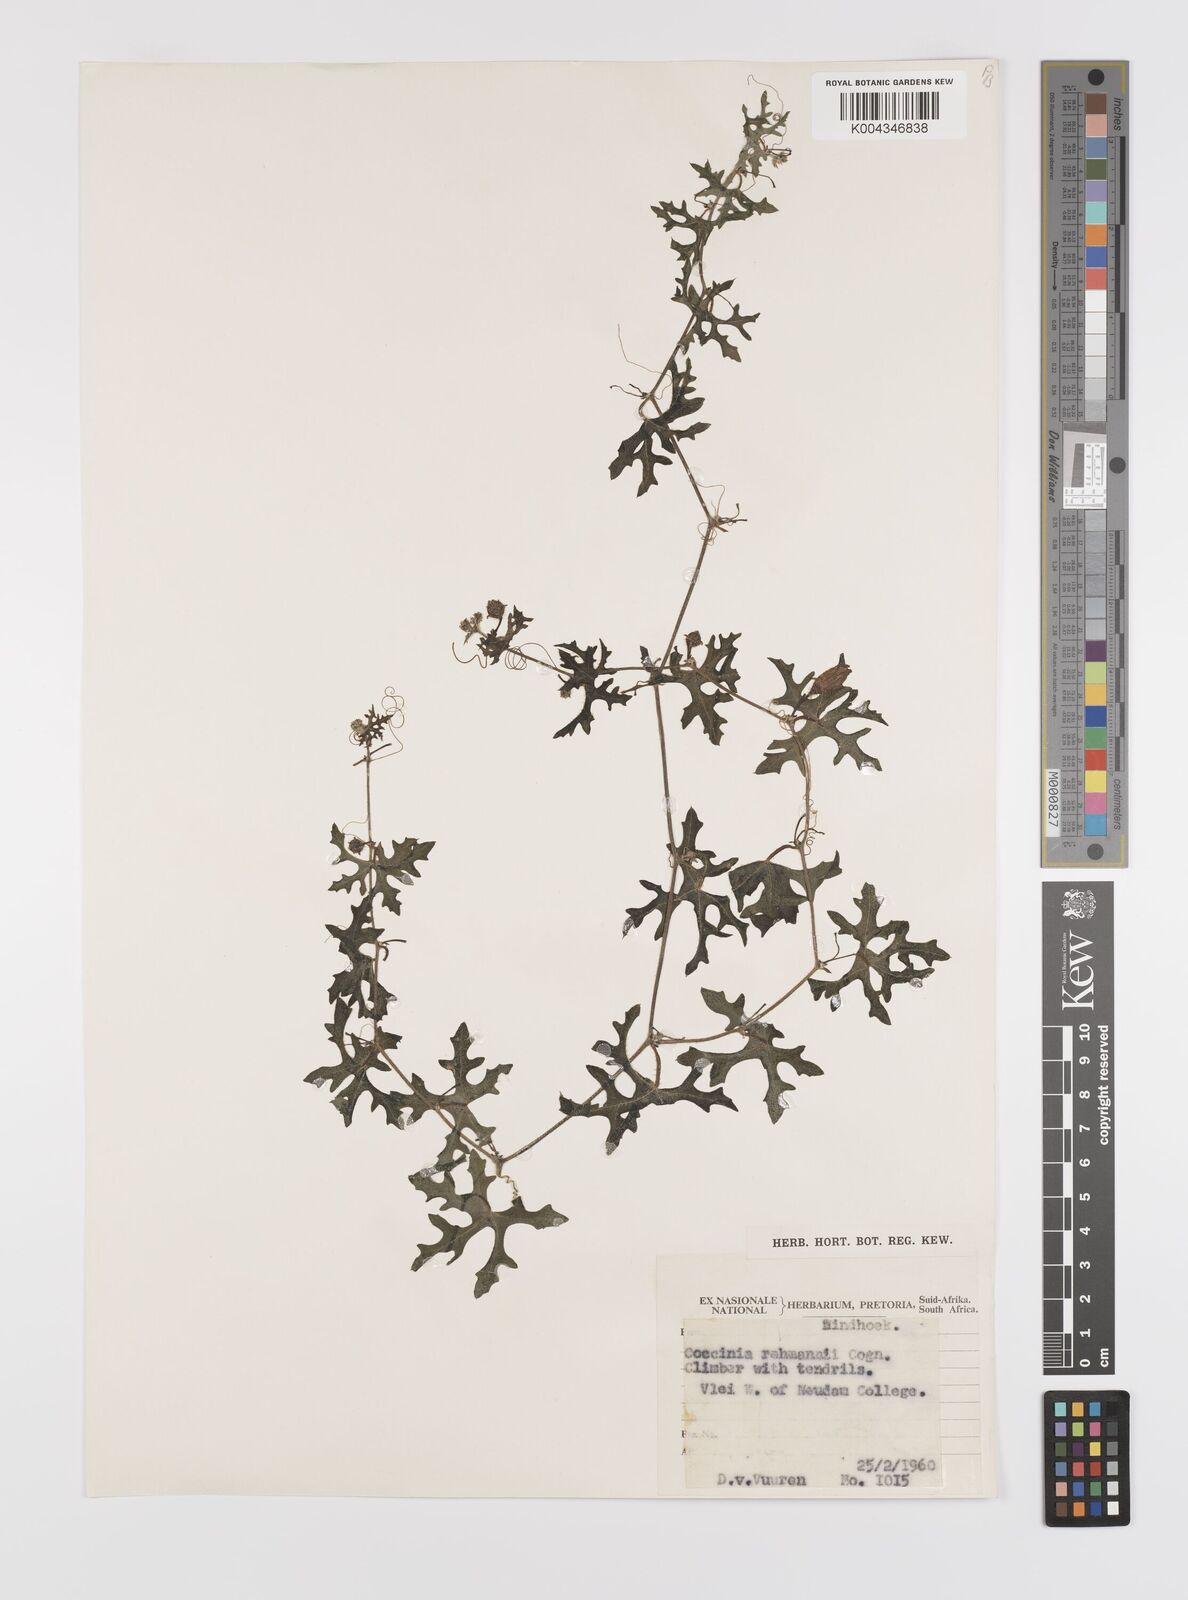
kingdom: Plantae
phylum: Tracheophyta
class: Magnoliopsida
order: Cucurbitales
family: Cucurbitaceae
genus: Coccinia
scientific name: Coccinia rehmannii
